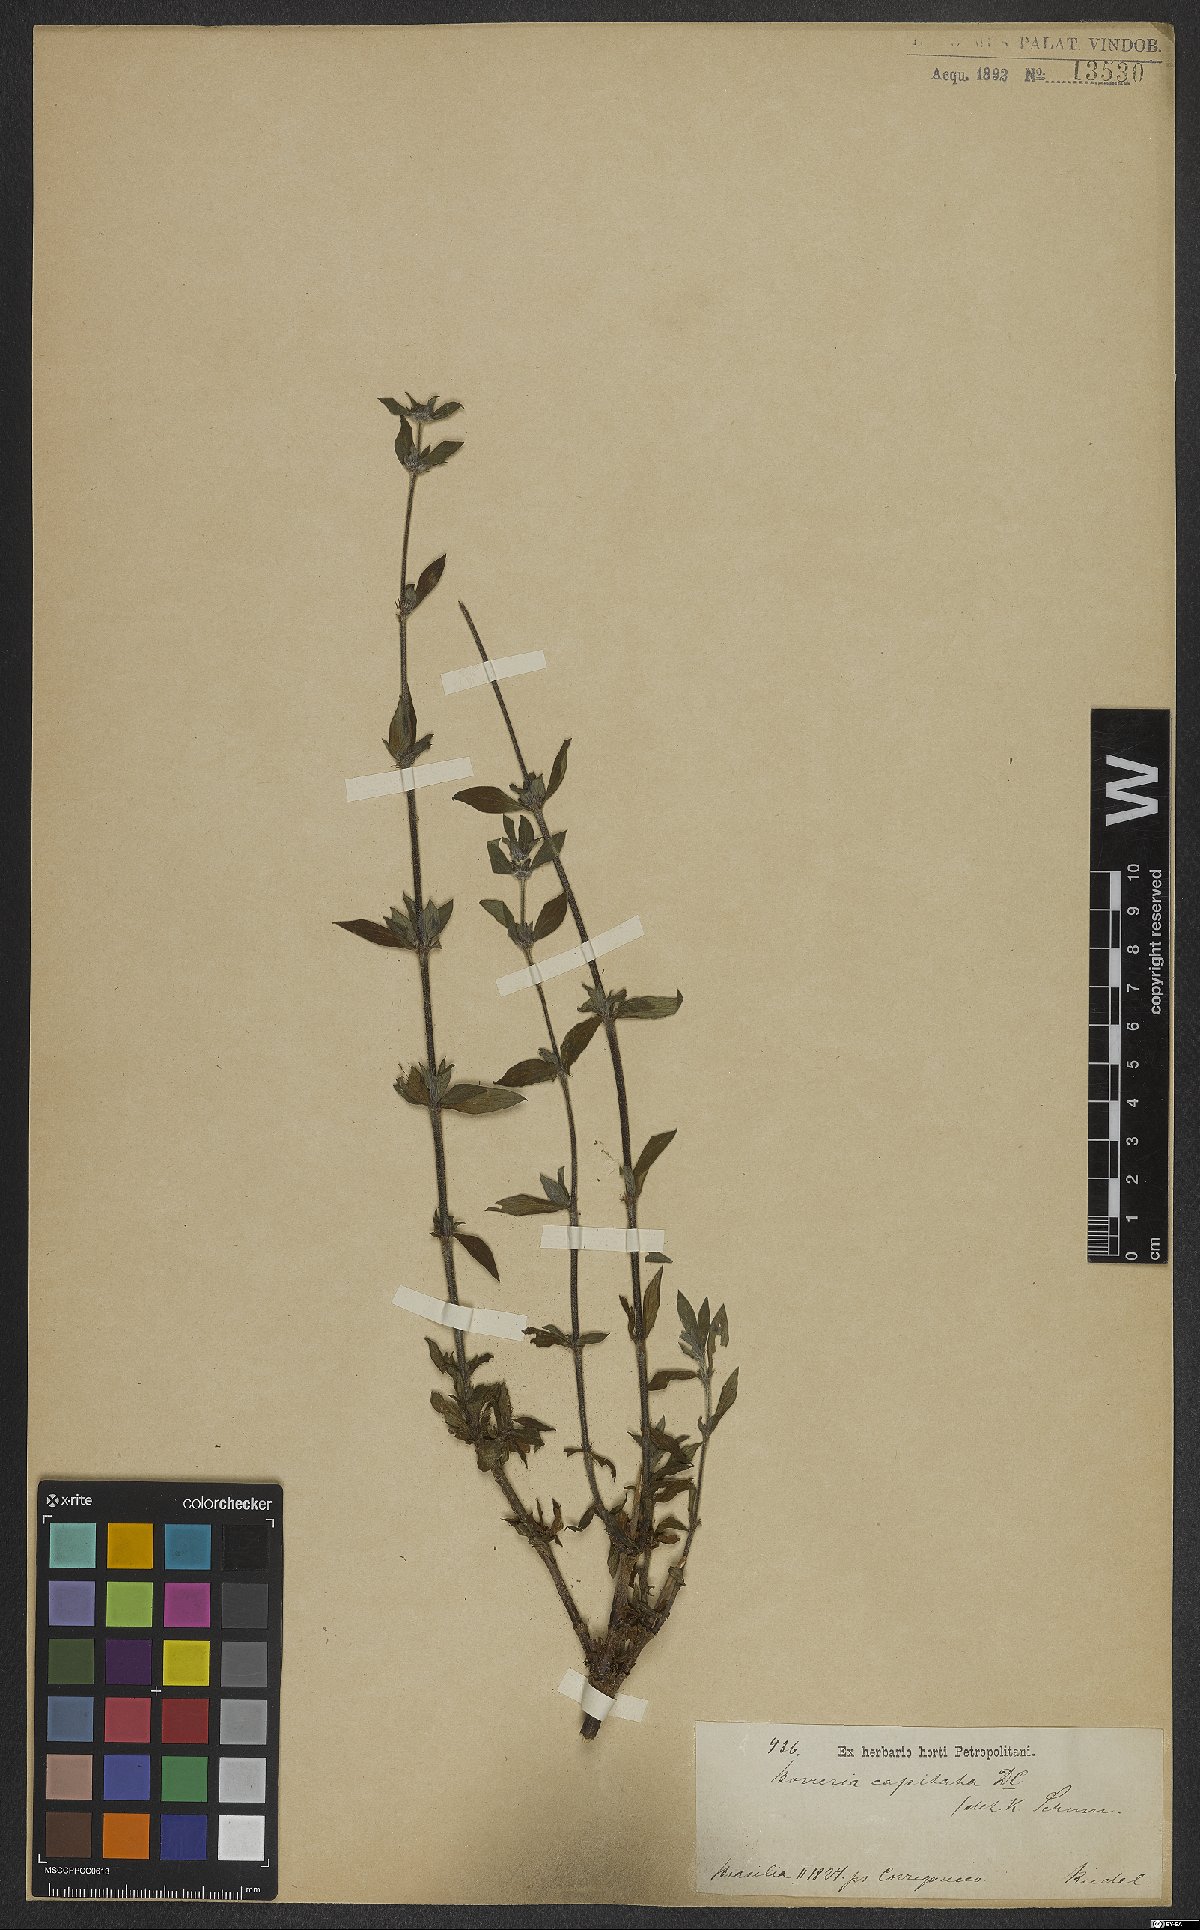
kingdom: Plantae
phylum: Tracheophyta
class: Magnoliopsida
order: Gentianales
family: Rubiaceae
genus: Spermacoce
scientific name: Spermacoce capitata
